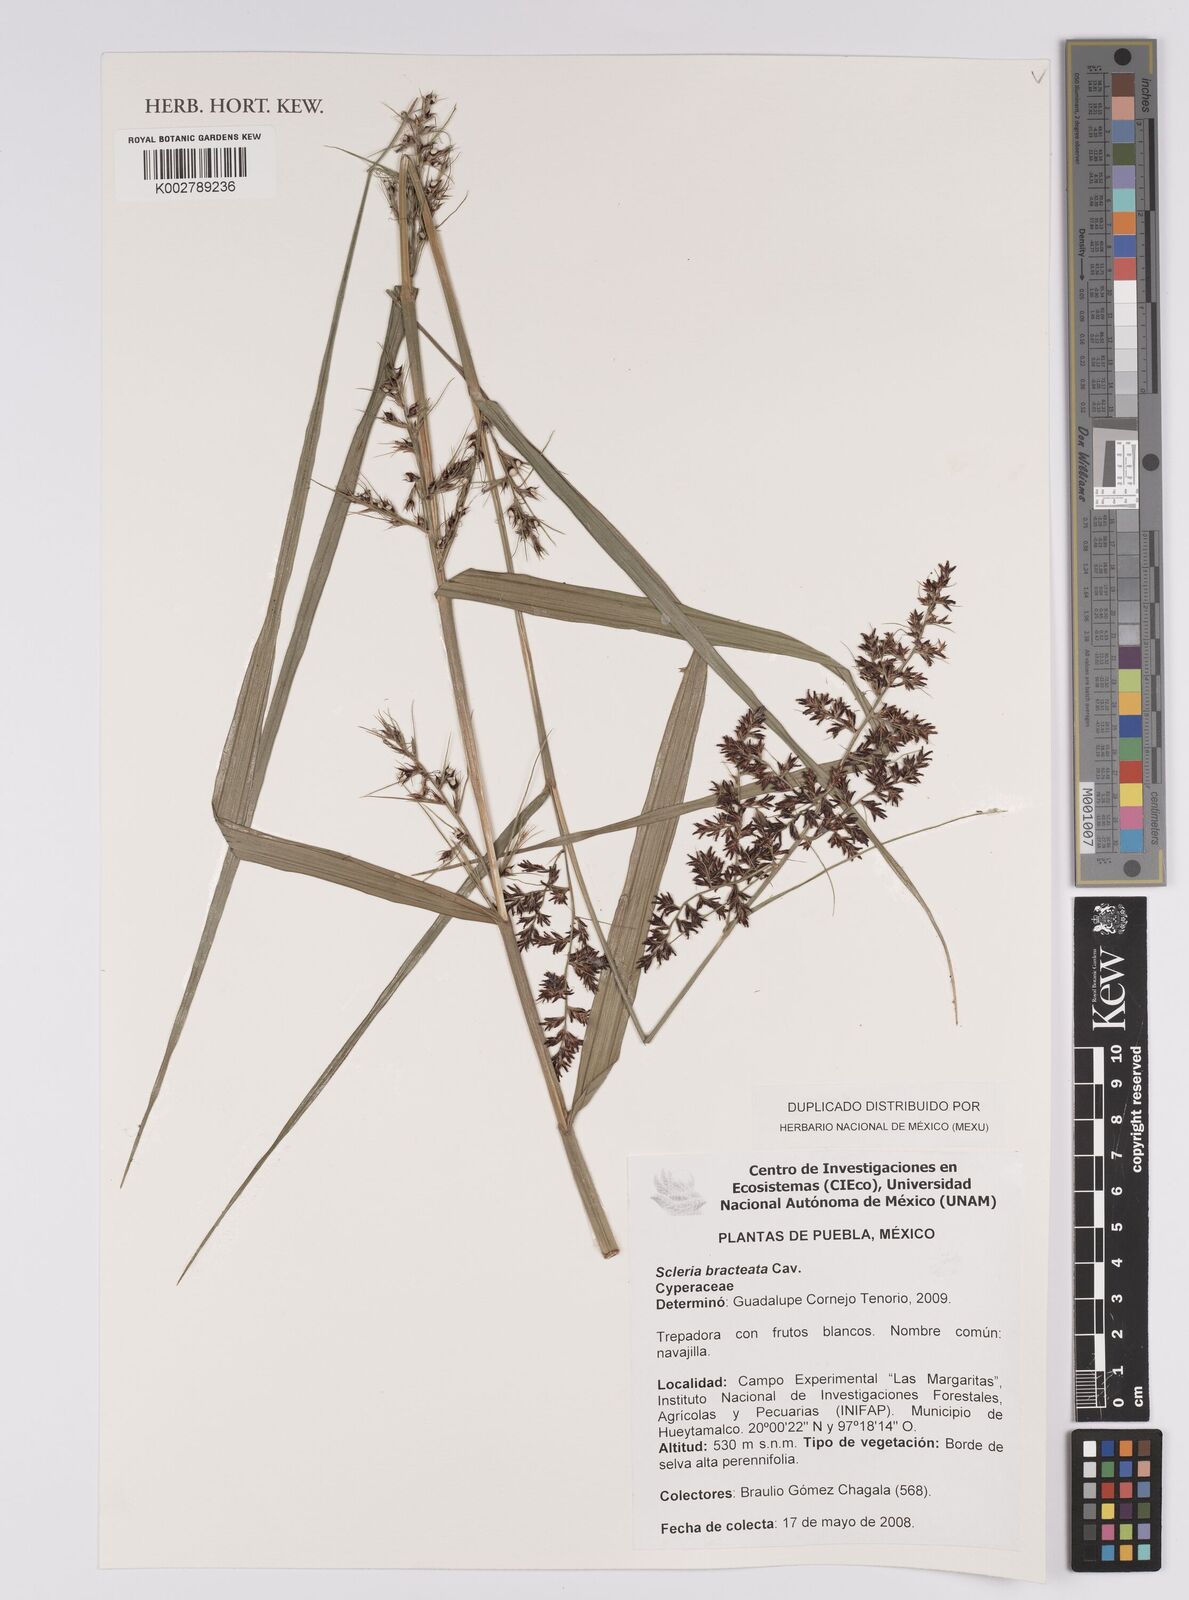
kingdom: Plantae
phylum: Tracheophyta
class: Liliopsida
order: Poales
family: Cyperaceae
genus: Scleria
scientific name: Scleria bracteata
